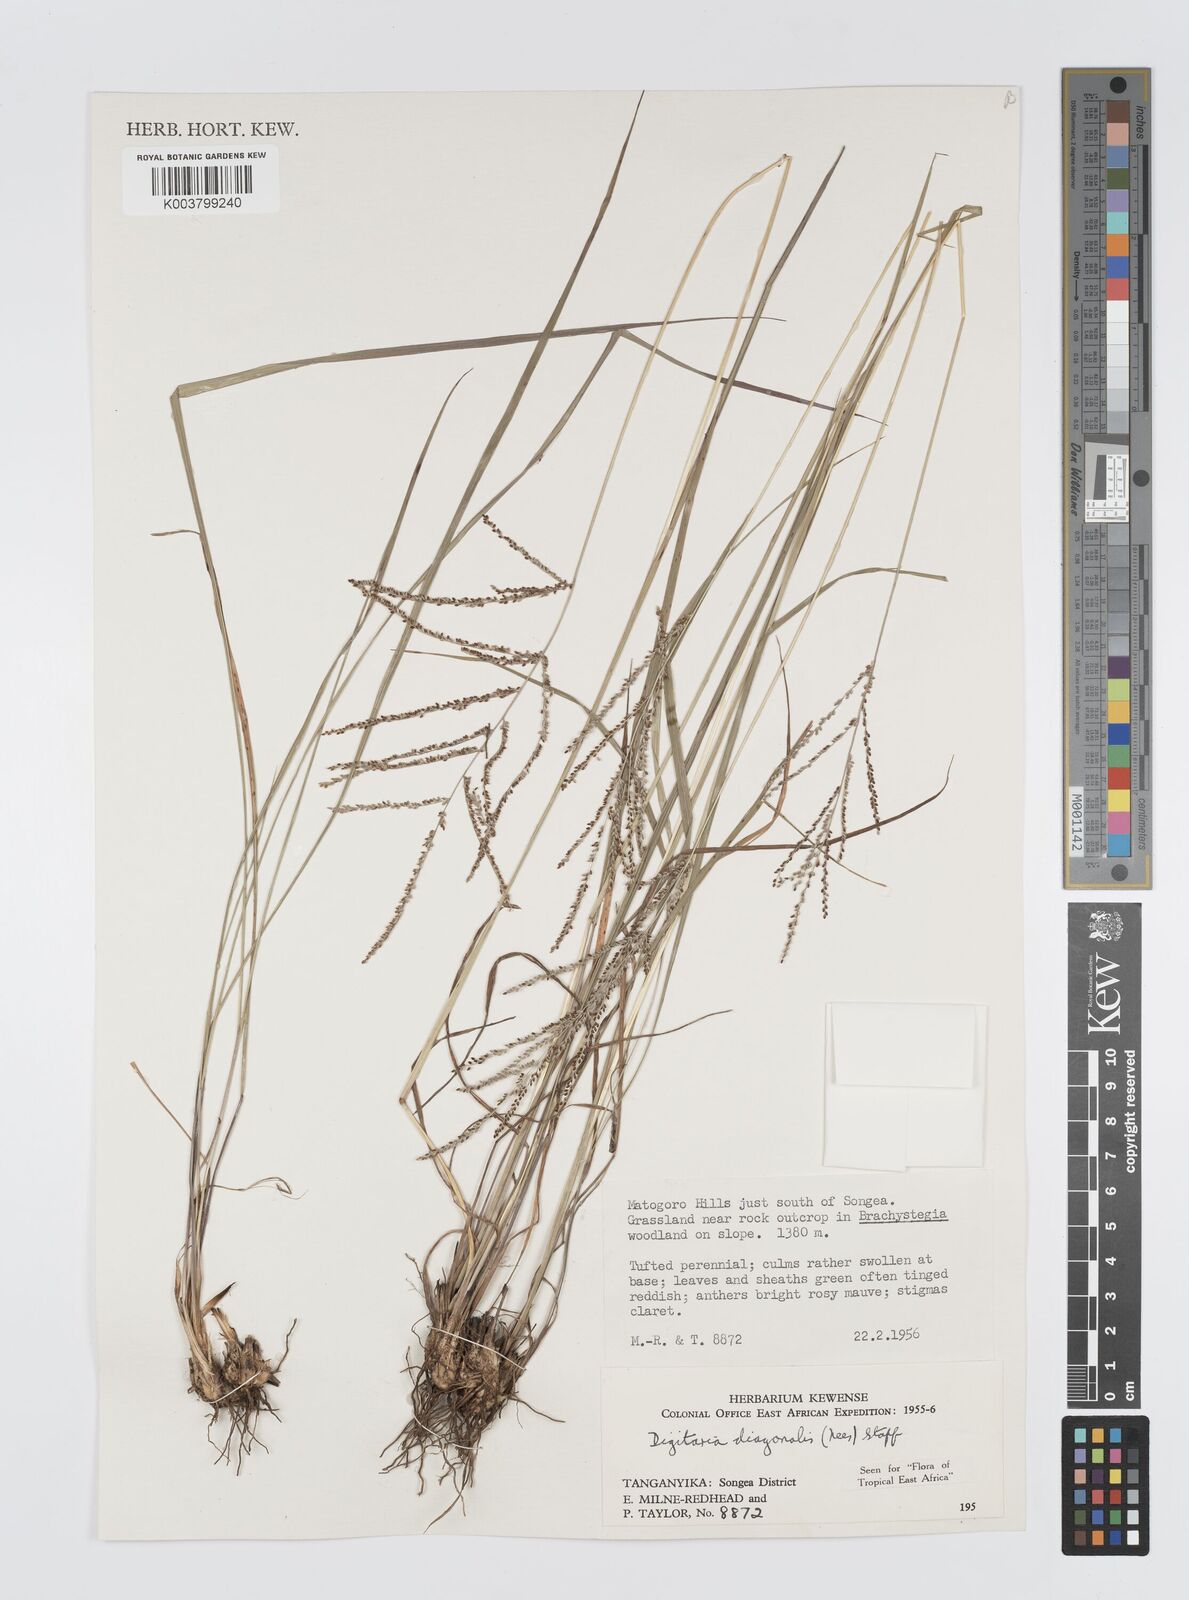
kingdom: Plantae
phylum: Tracheophyta
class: Liliopsida
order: Poales
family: Poaceae
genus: Digitaria
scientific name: Digitaria diagonalis
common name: Brown-seed finger grass
